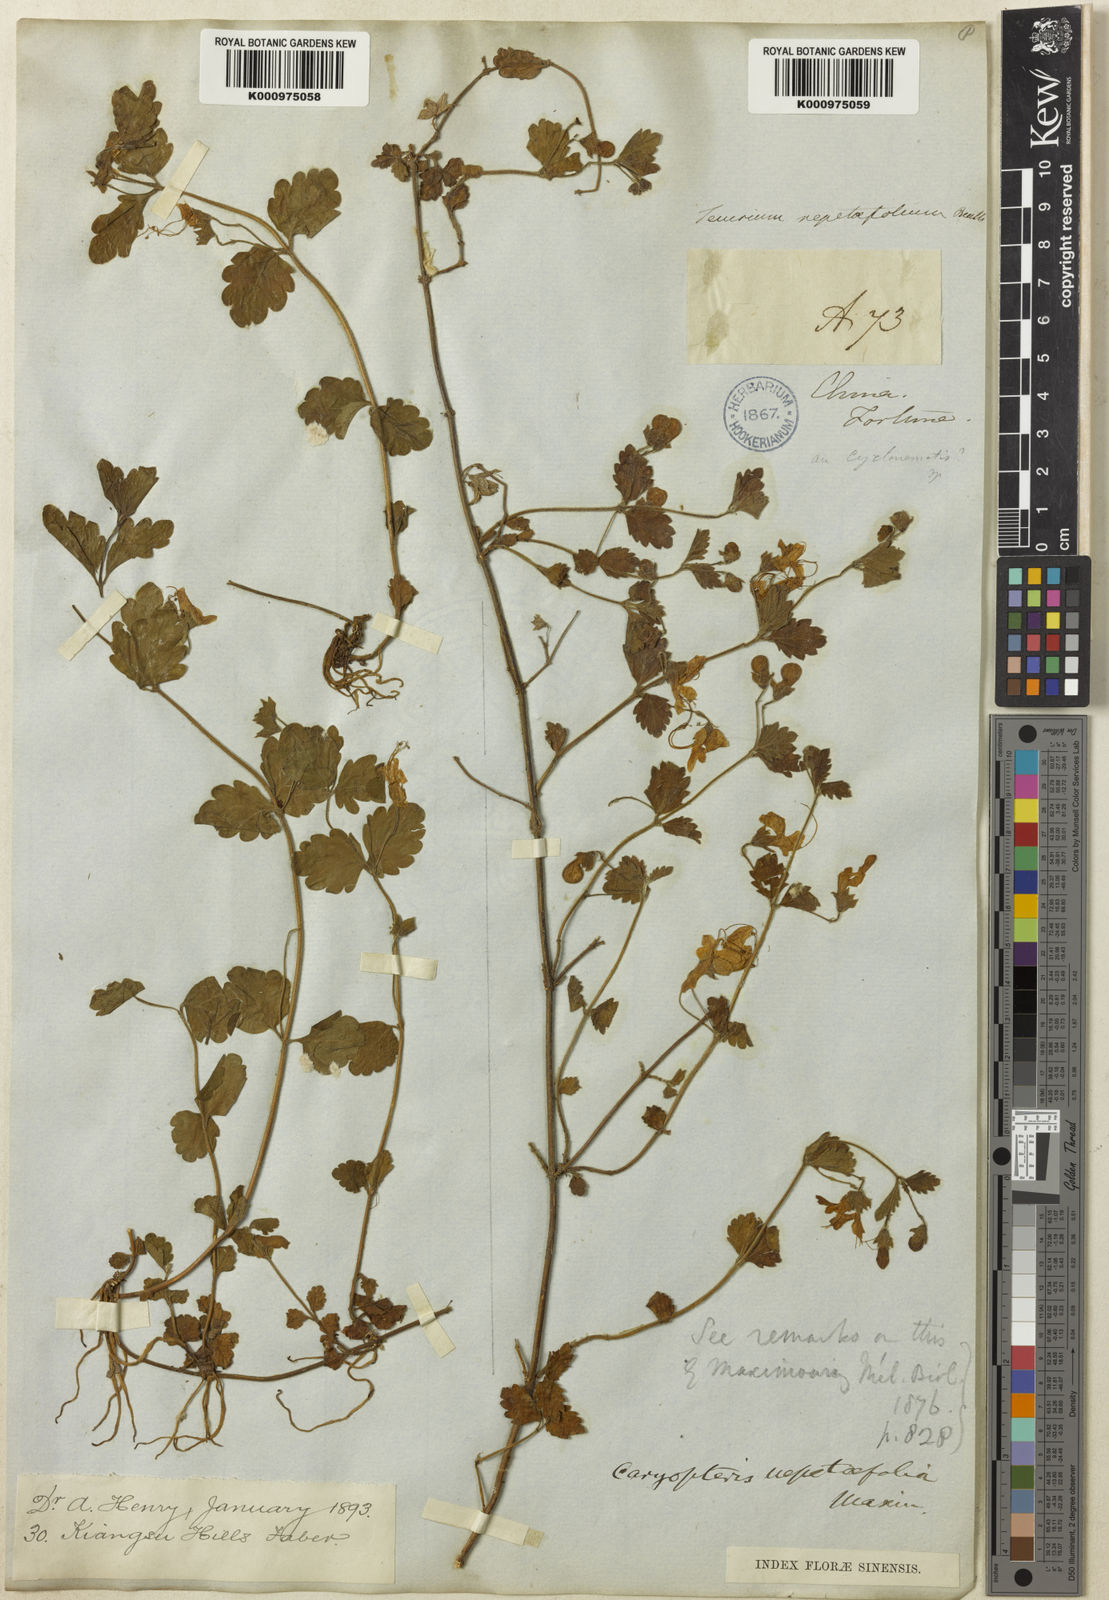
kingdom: Plantae
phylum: Tracheophyta
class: Magnoliopsida
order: Lamiales
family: Lamiaceae
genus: Schnabelia
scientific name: Schnabelia nepetifolia
